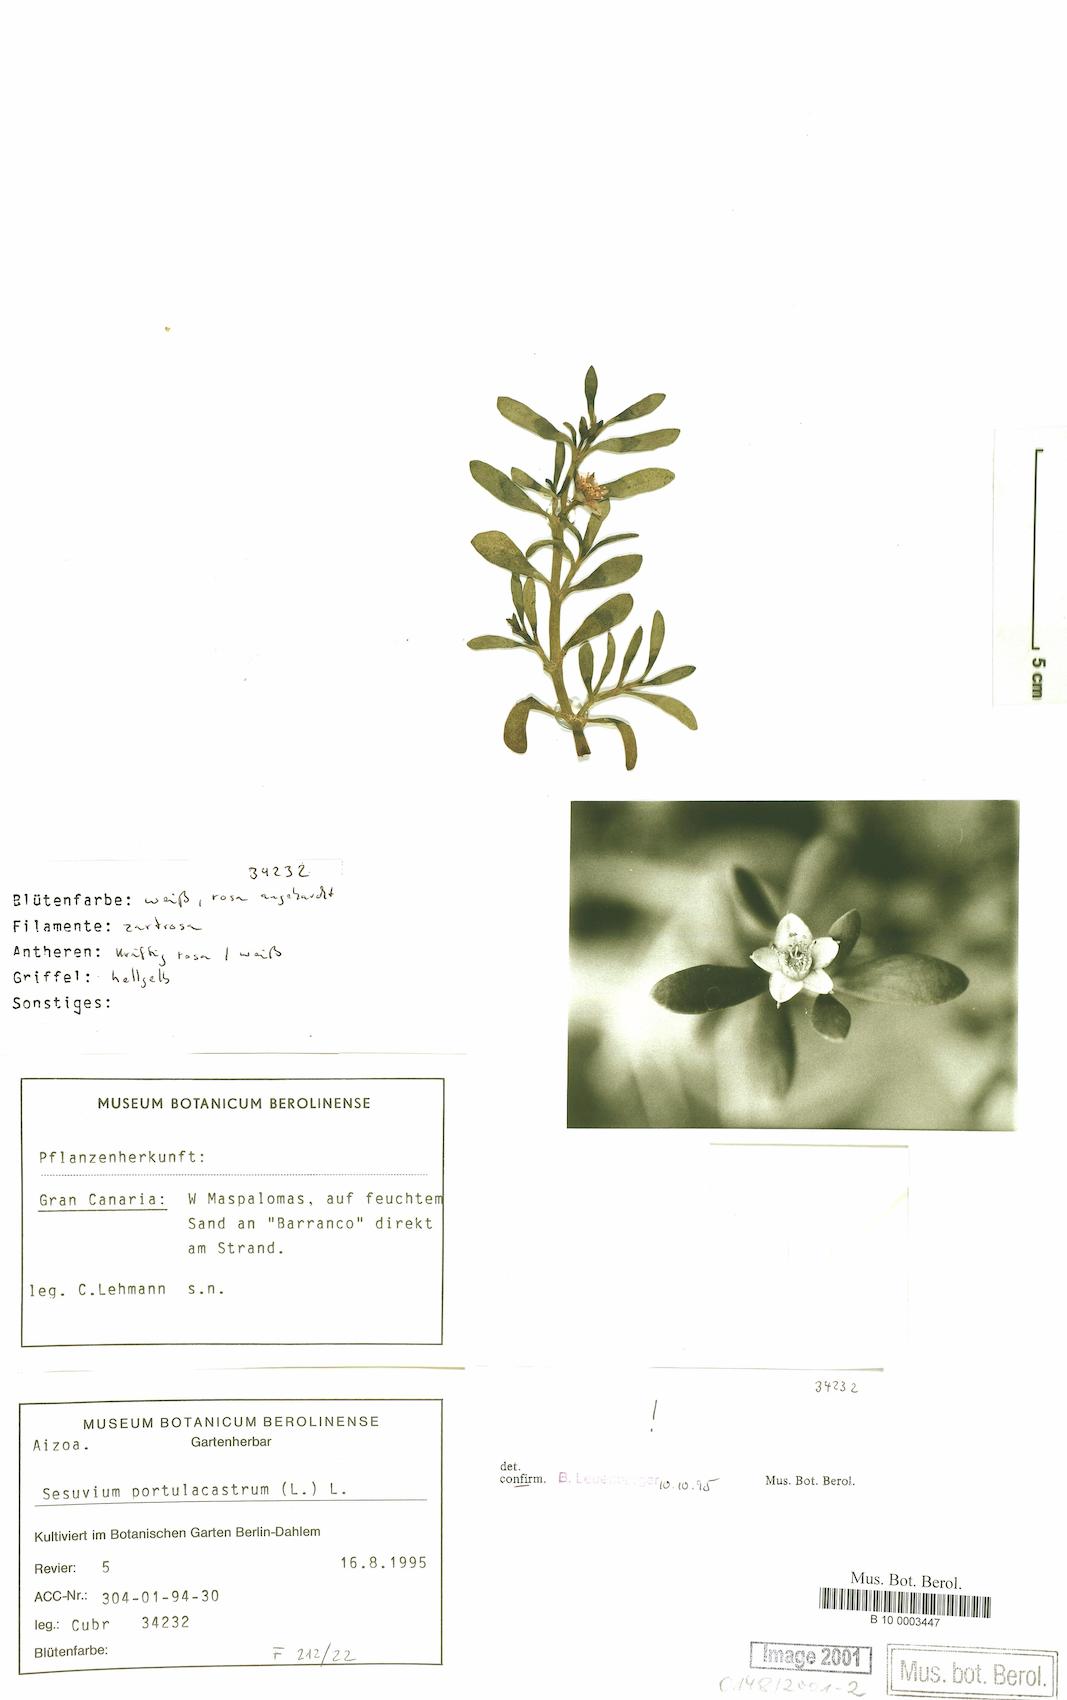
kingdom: Plantae
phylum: Tracheophyta
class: Magnoliopsida
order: Caryophyllales
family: Aizoaceae
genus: Sesuvium
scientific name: Sesuvium portulacastrum
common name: Sea-purslane
